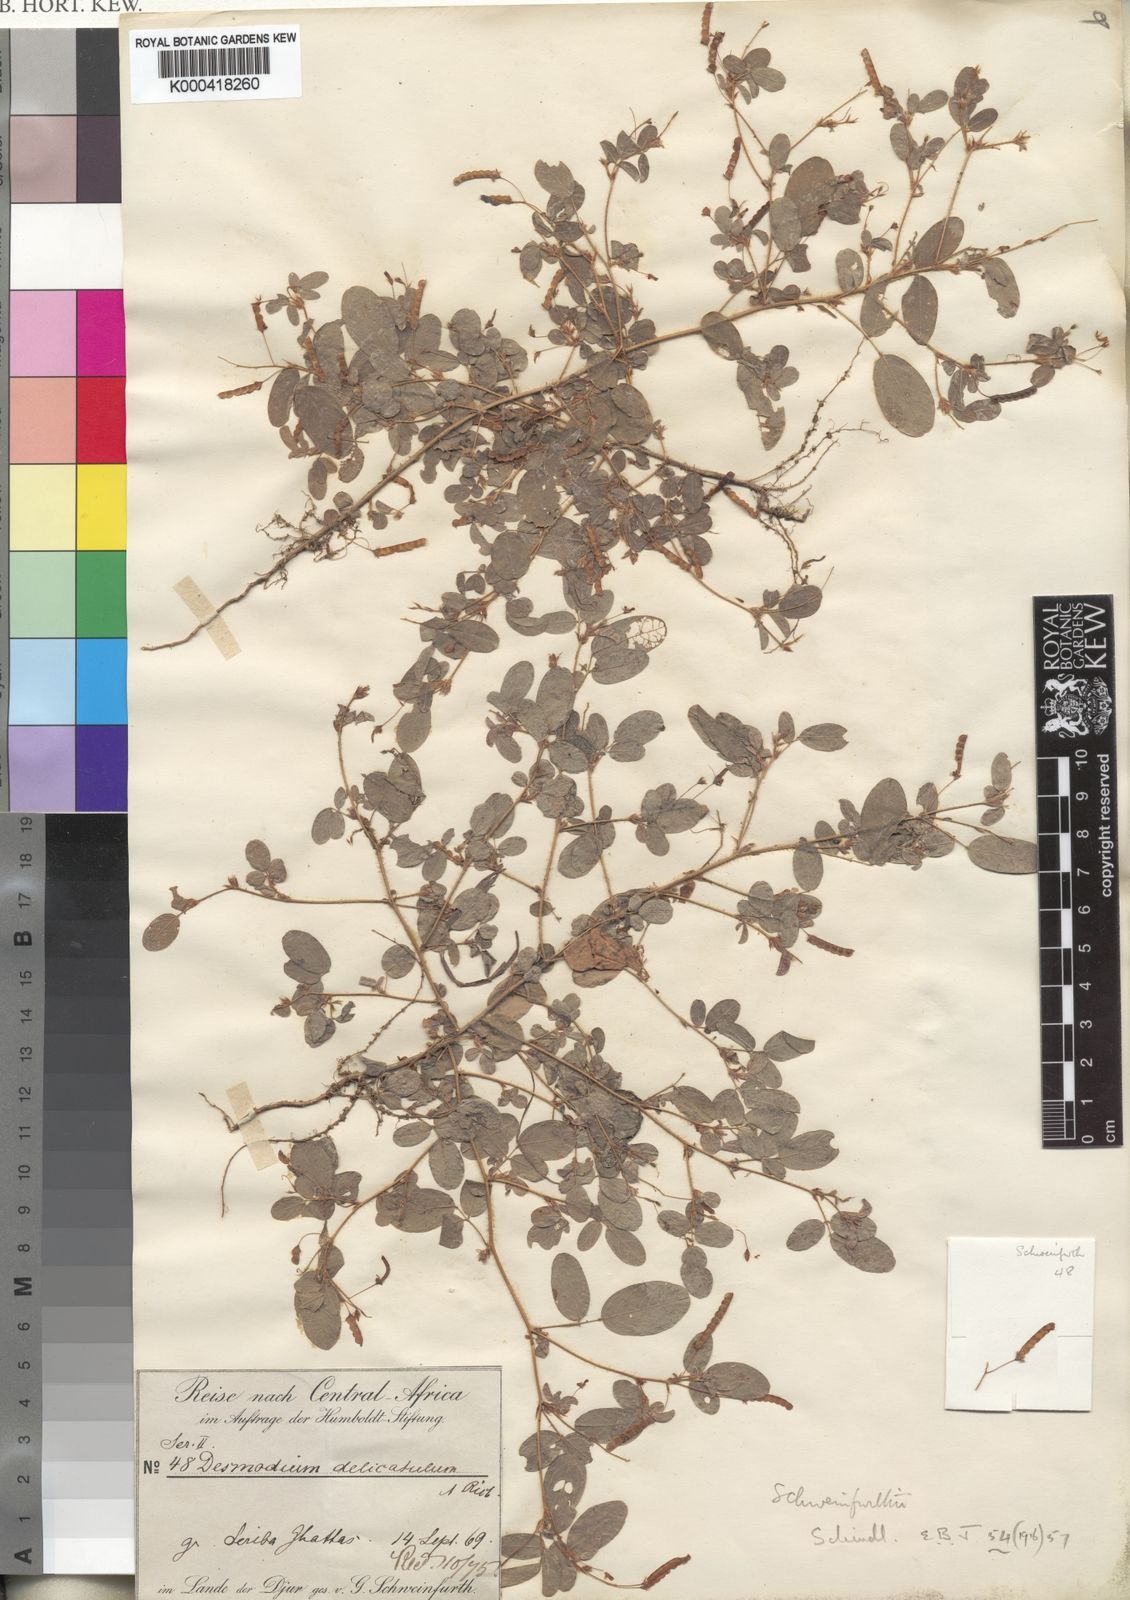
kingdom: Plantae
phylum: Tracheophyta
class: Magnoliopsida
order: Fabales
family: Fabaceae
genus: Grona
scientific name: Grona schweinfurthii
